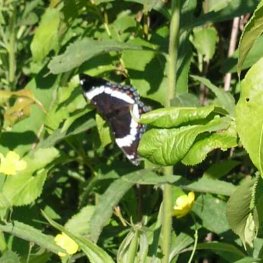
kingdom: Animalia
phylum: Arthropoda
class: Insecta
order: Lepidoptera
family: Nymphalidae
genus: Limenitis
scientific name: Limenitis arthemis
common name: Red-spotted Admiral
